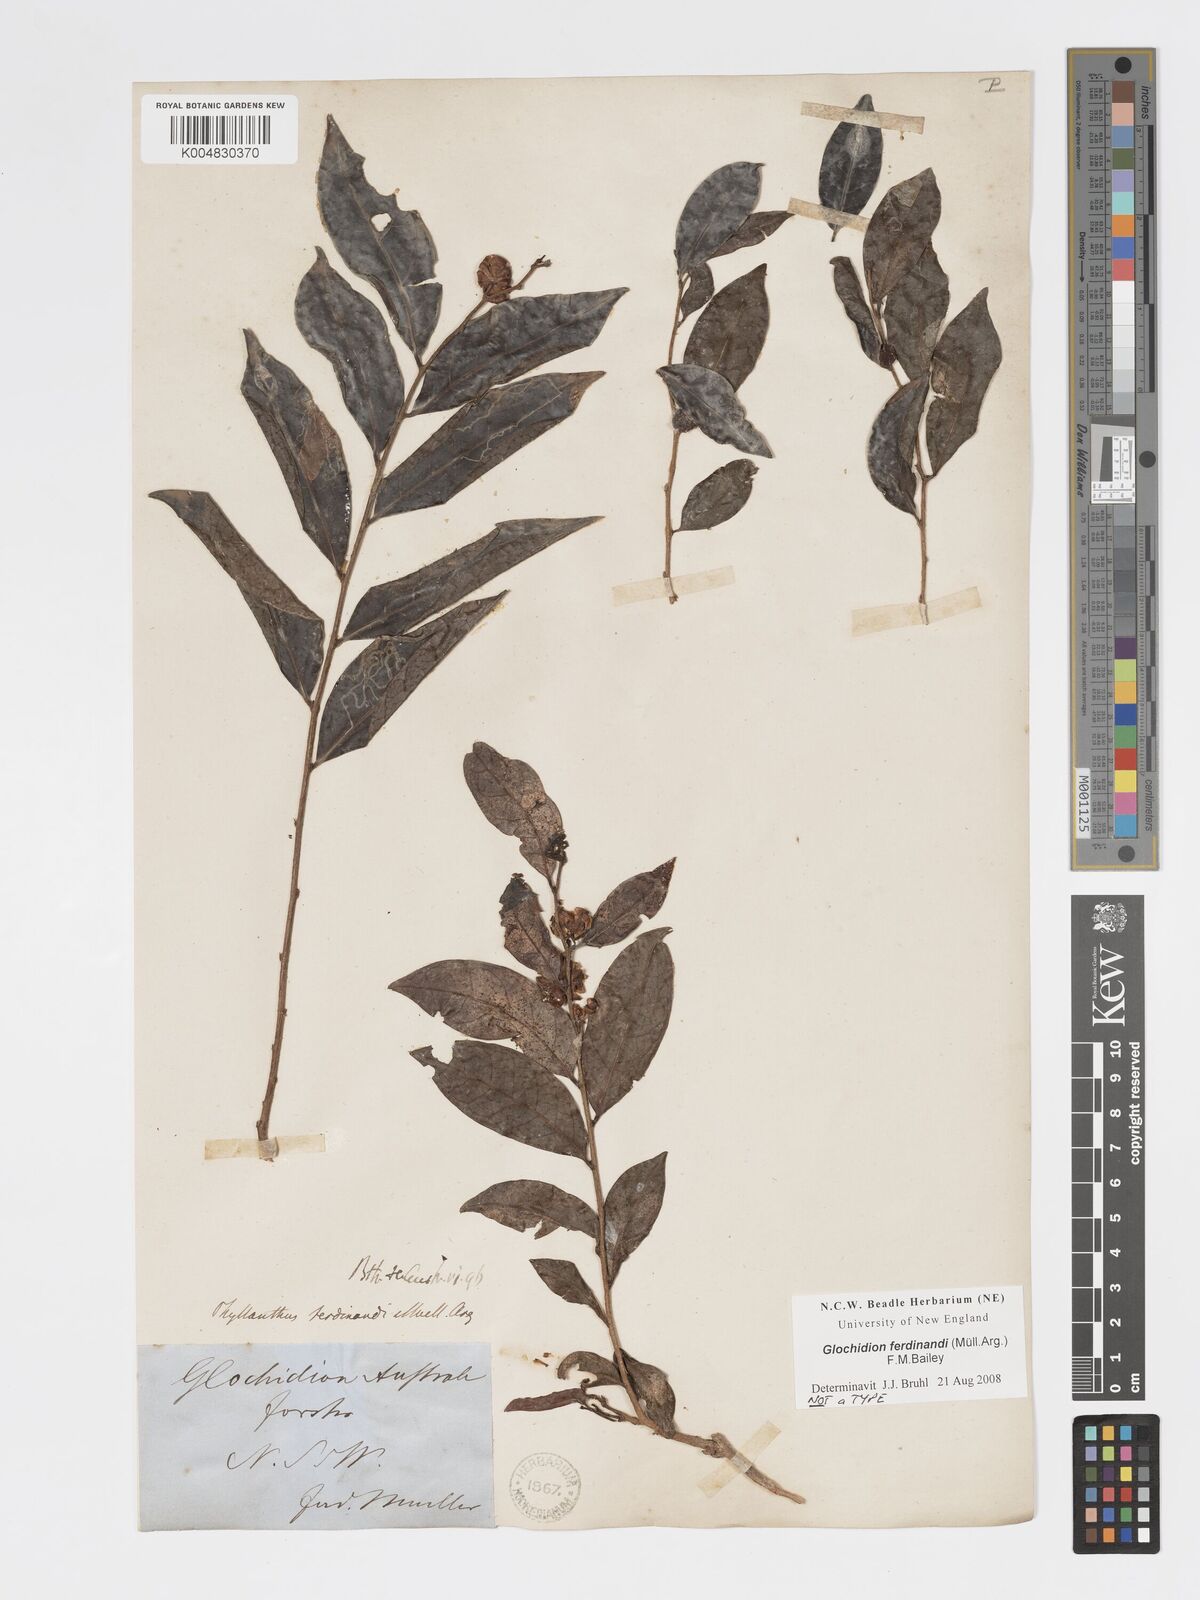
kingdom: Plantae
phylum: Tracheophyta
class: Magnoliopsida
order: Malpighiales
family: Phyllanthaceae
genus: Glochidion
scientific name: Glochidion ferdinandi
